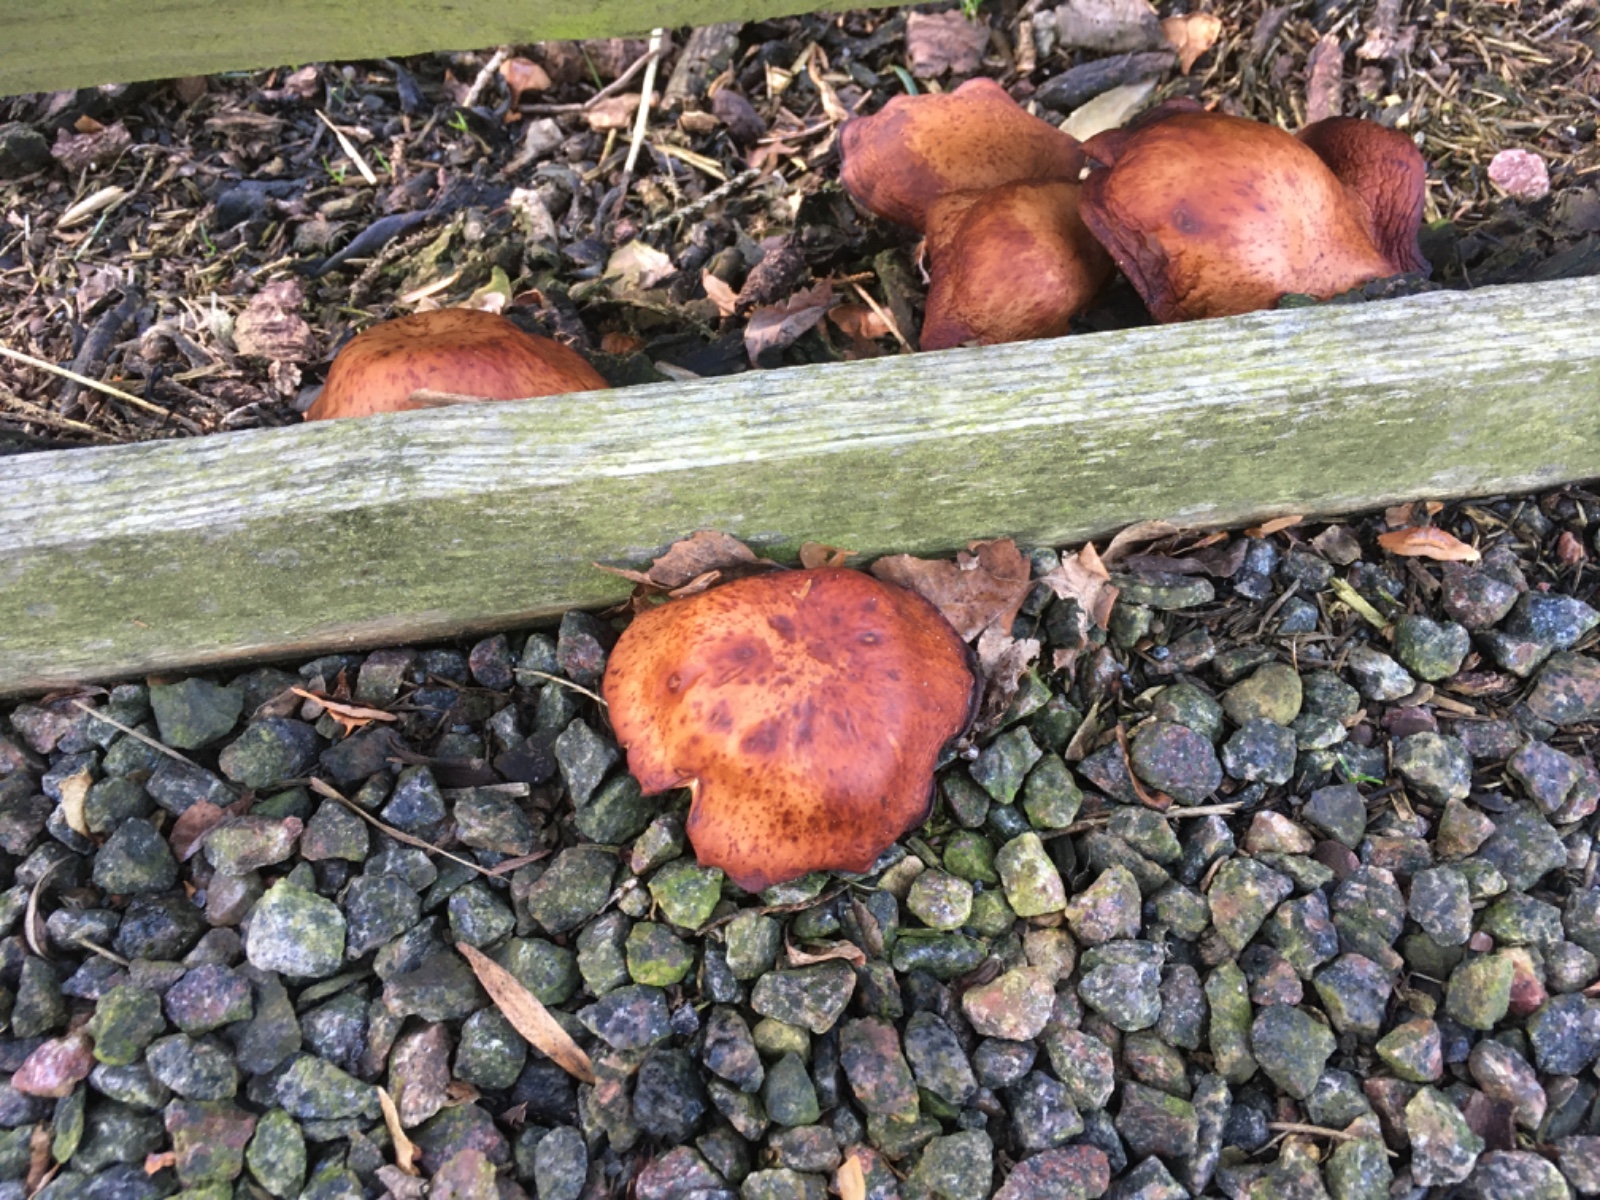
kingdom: Fungi
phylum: Basidiomycota
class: Agaricomycetes
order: Agaricales
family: Tricholomataceae
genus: Paralepista
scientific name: Paralepista flaccida
